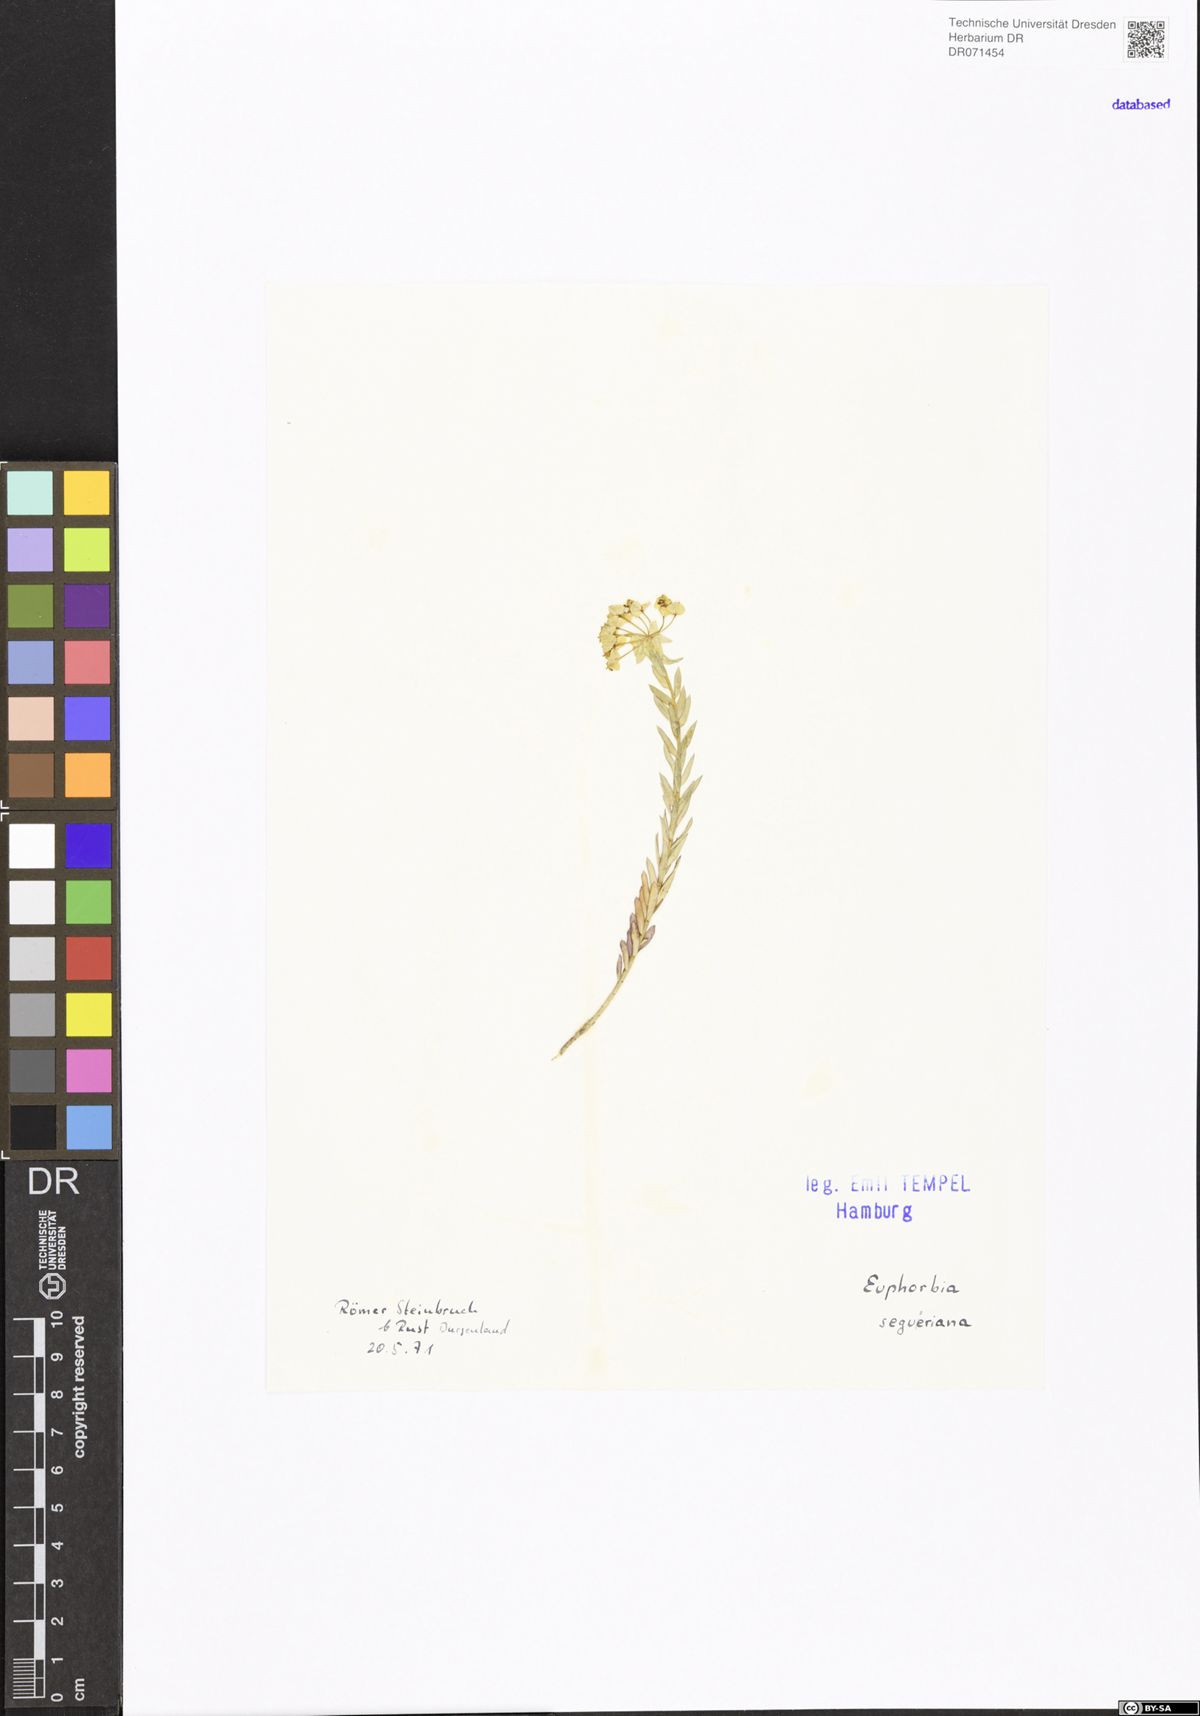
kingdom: Plantae
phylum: Tracheophyta
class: Magnoliopsida
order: Malpighiales
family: Euphorbiaceae
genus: Euphorbia
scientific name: Euphorbia seguieriana
